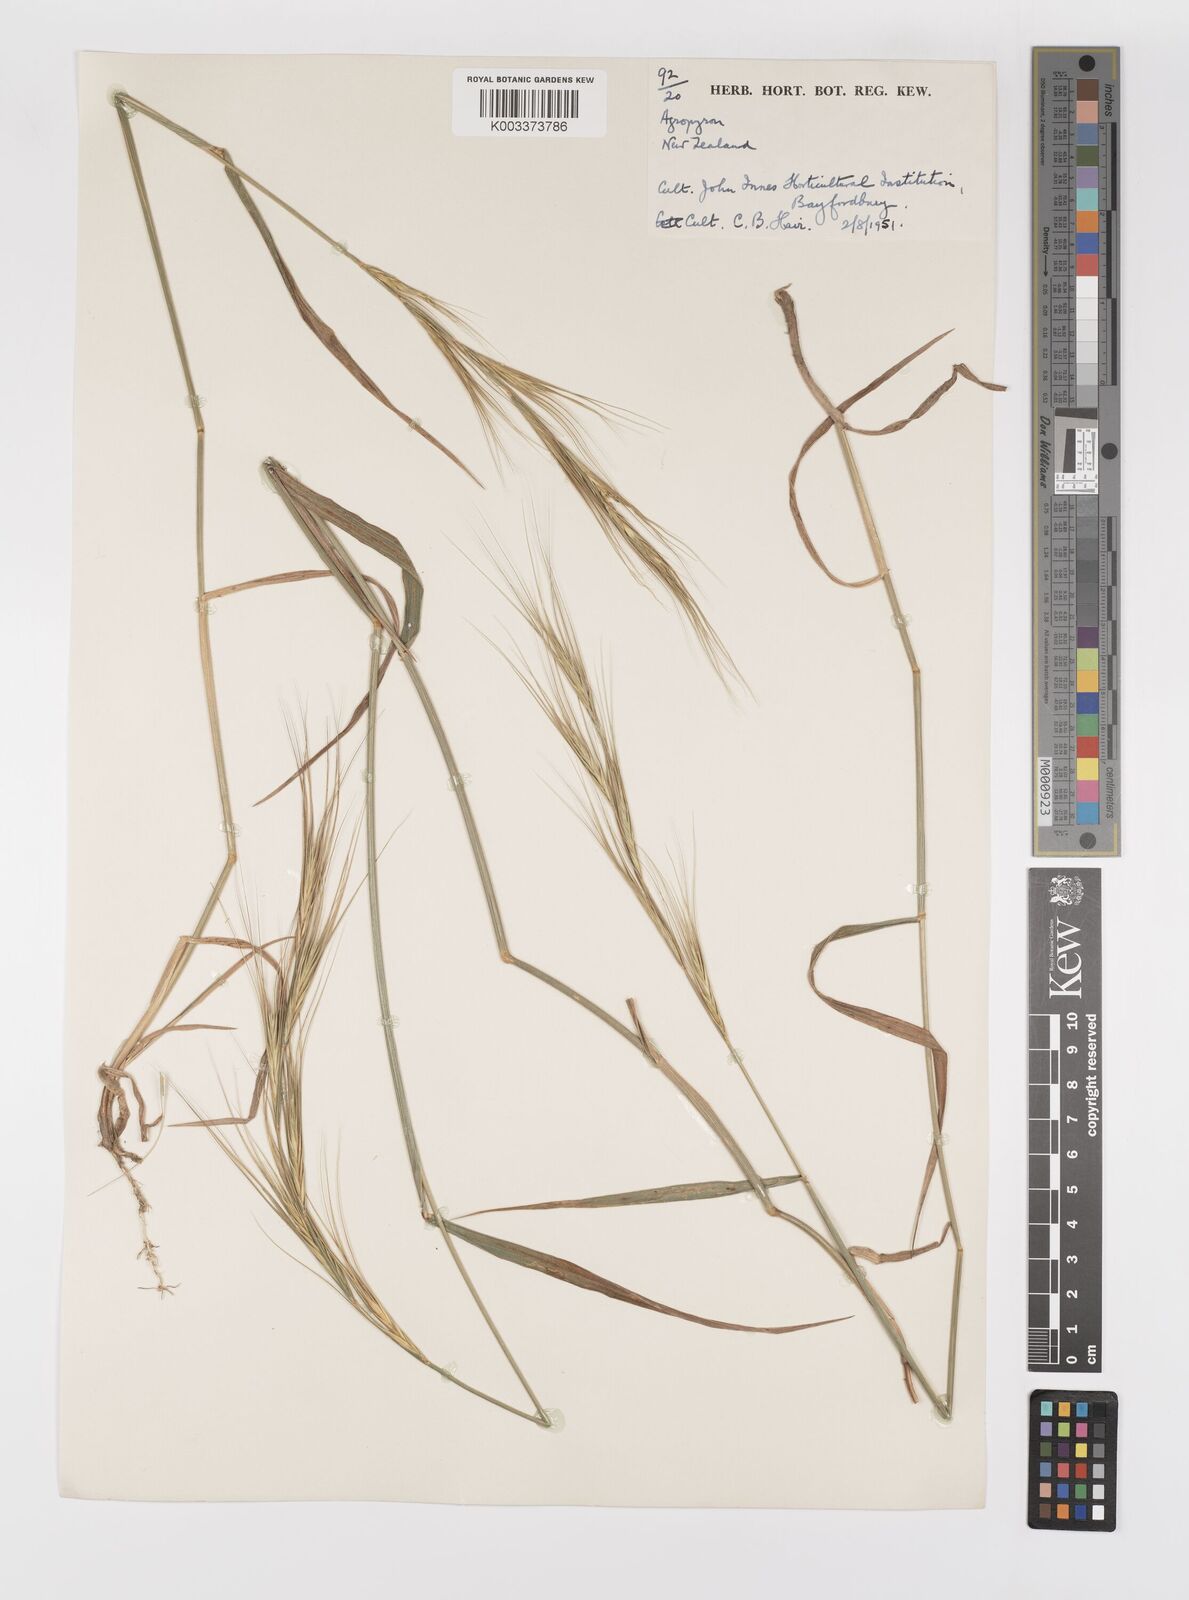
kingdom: Plantae
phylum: Tracheophyta
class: Liliopsida
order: Poales
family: Poaceae
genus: Elymus
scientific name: Elymus
